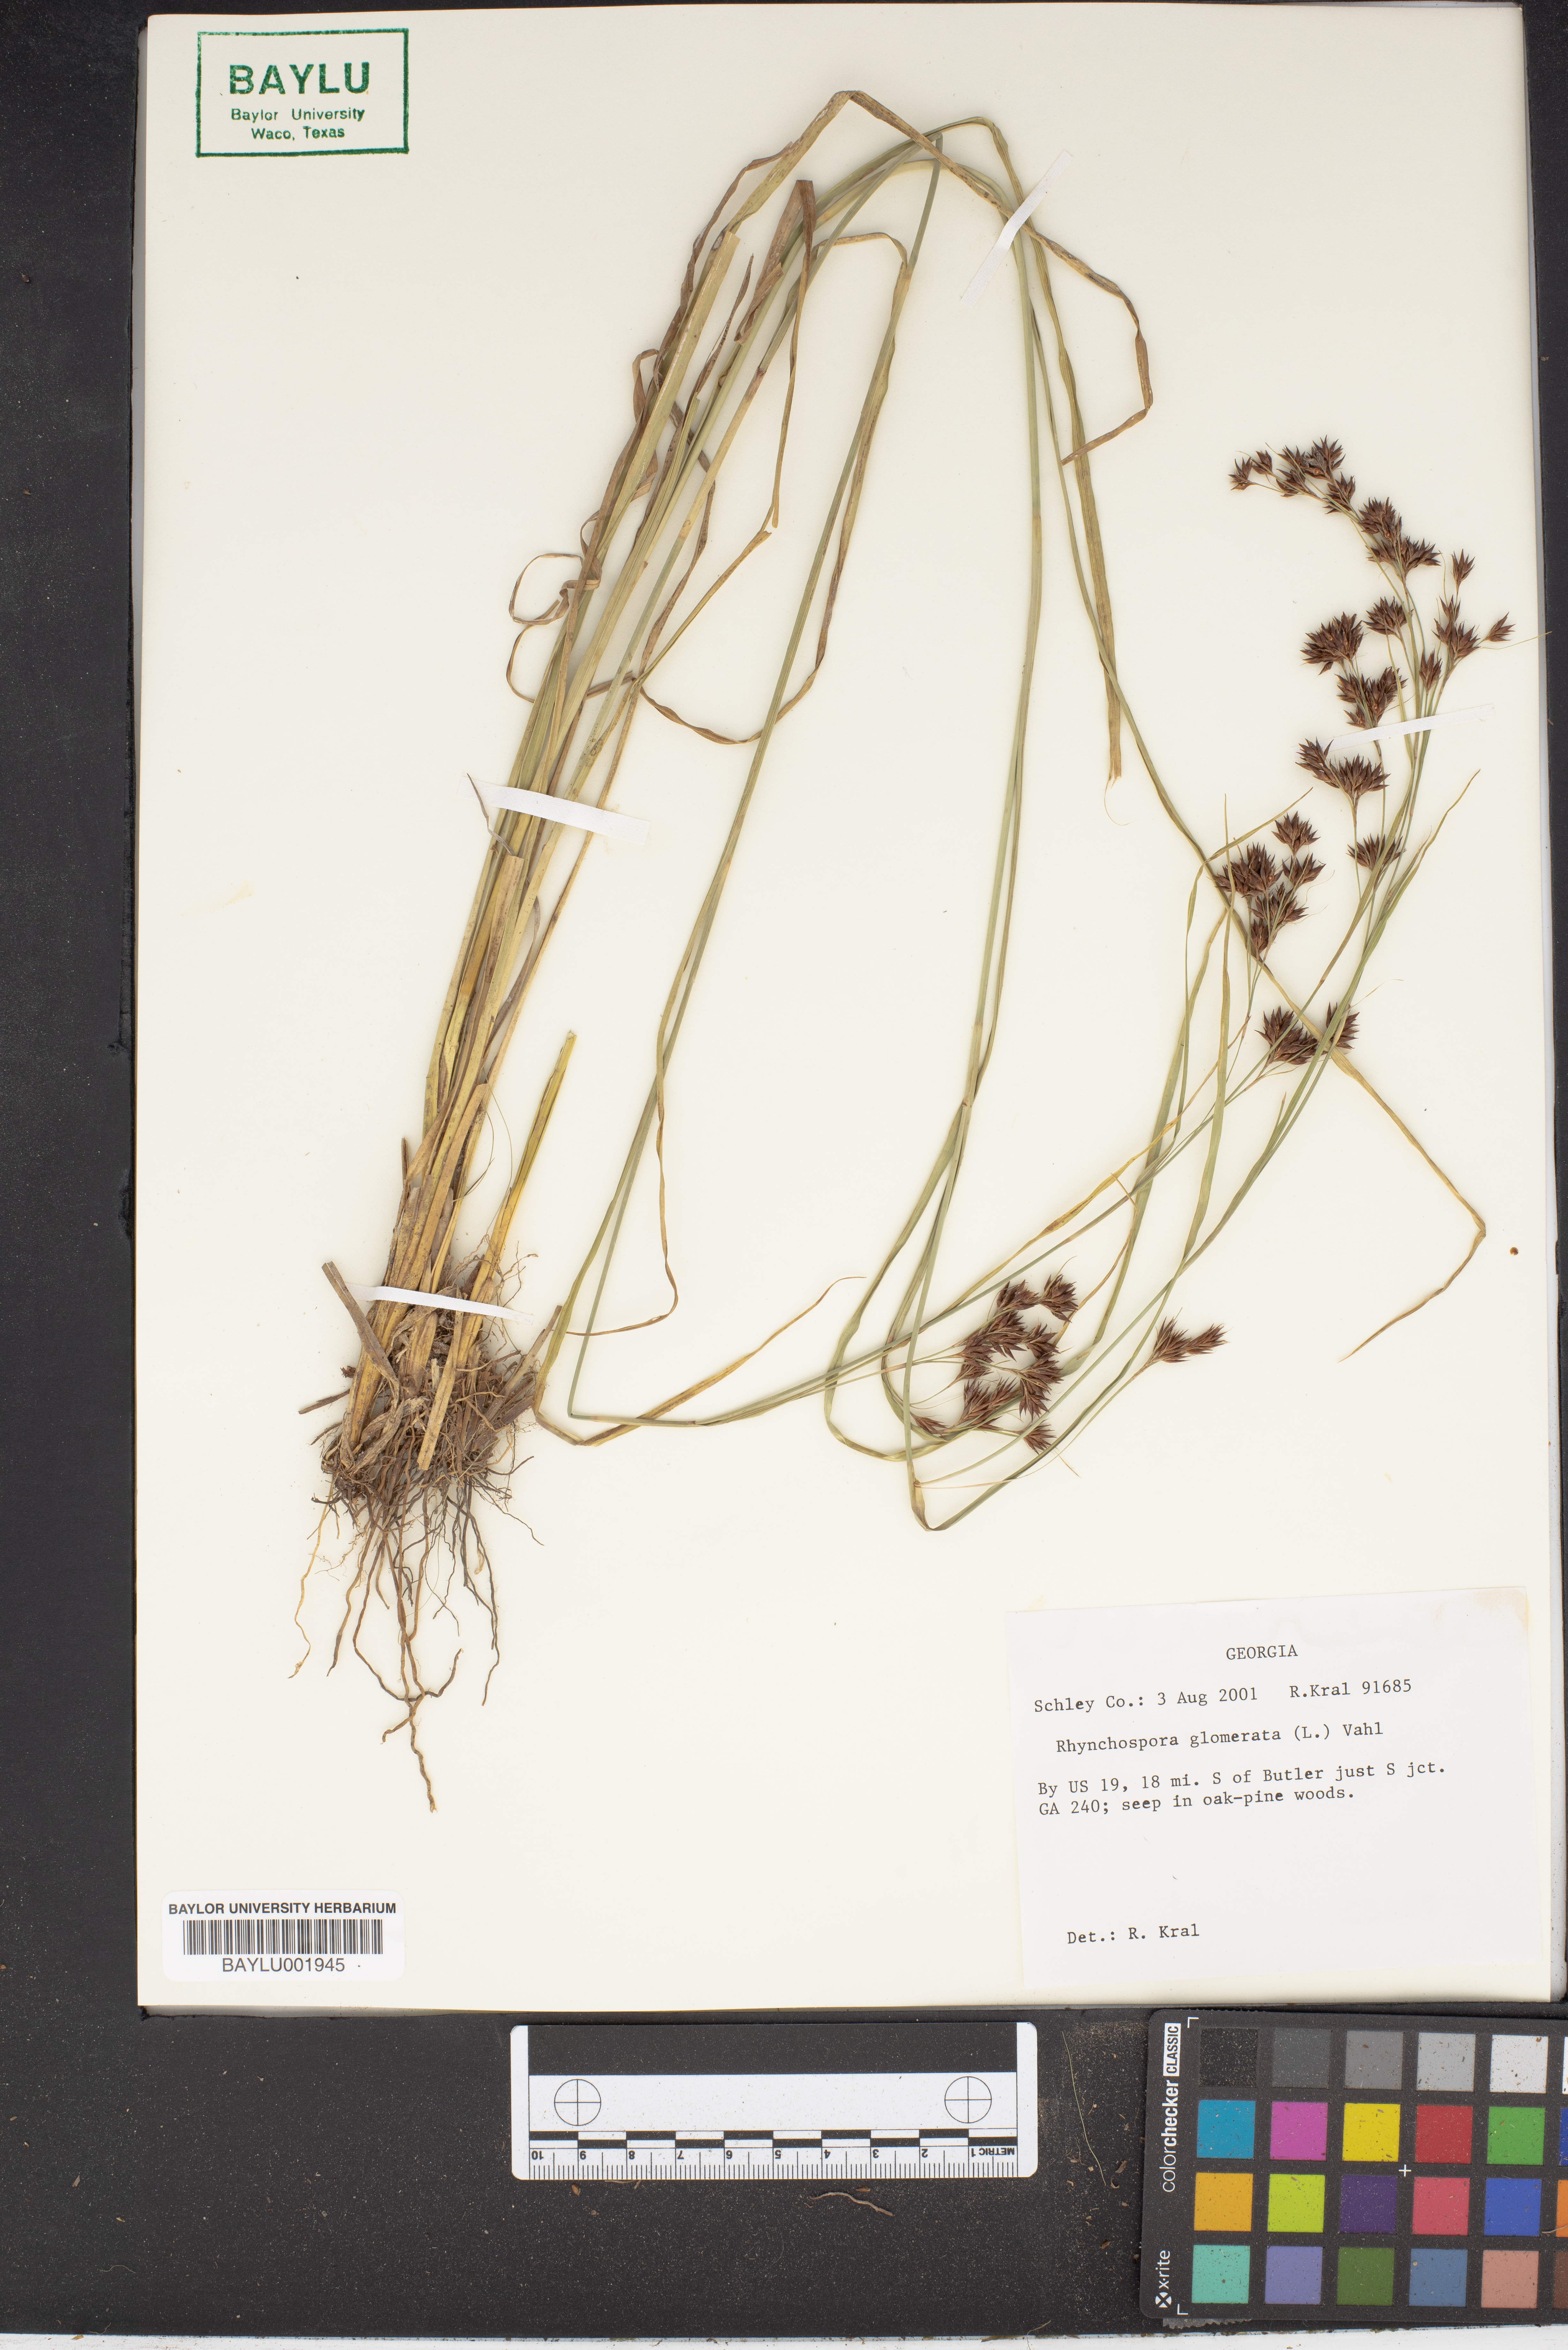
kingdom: Plantae
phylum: Tracheophyta
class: Liliopsida
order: Poales
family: Cyperaceae
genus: Rhynchospora
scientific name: Rhynchospora glomerata
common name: Cluster beak sedge
